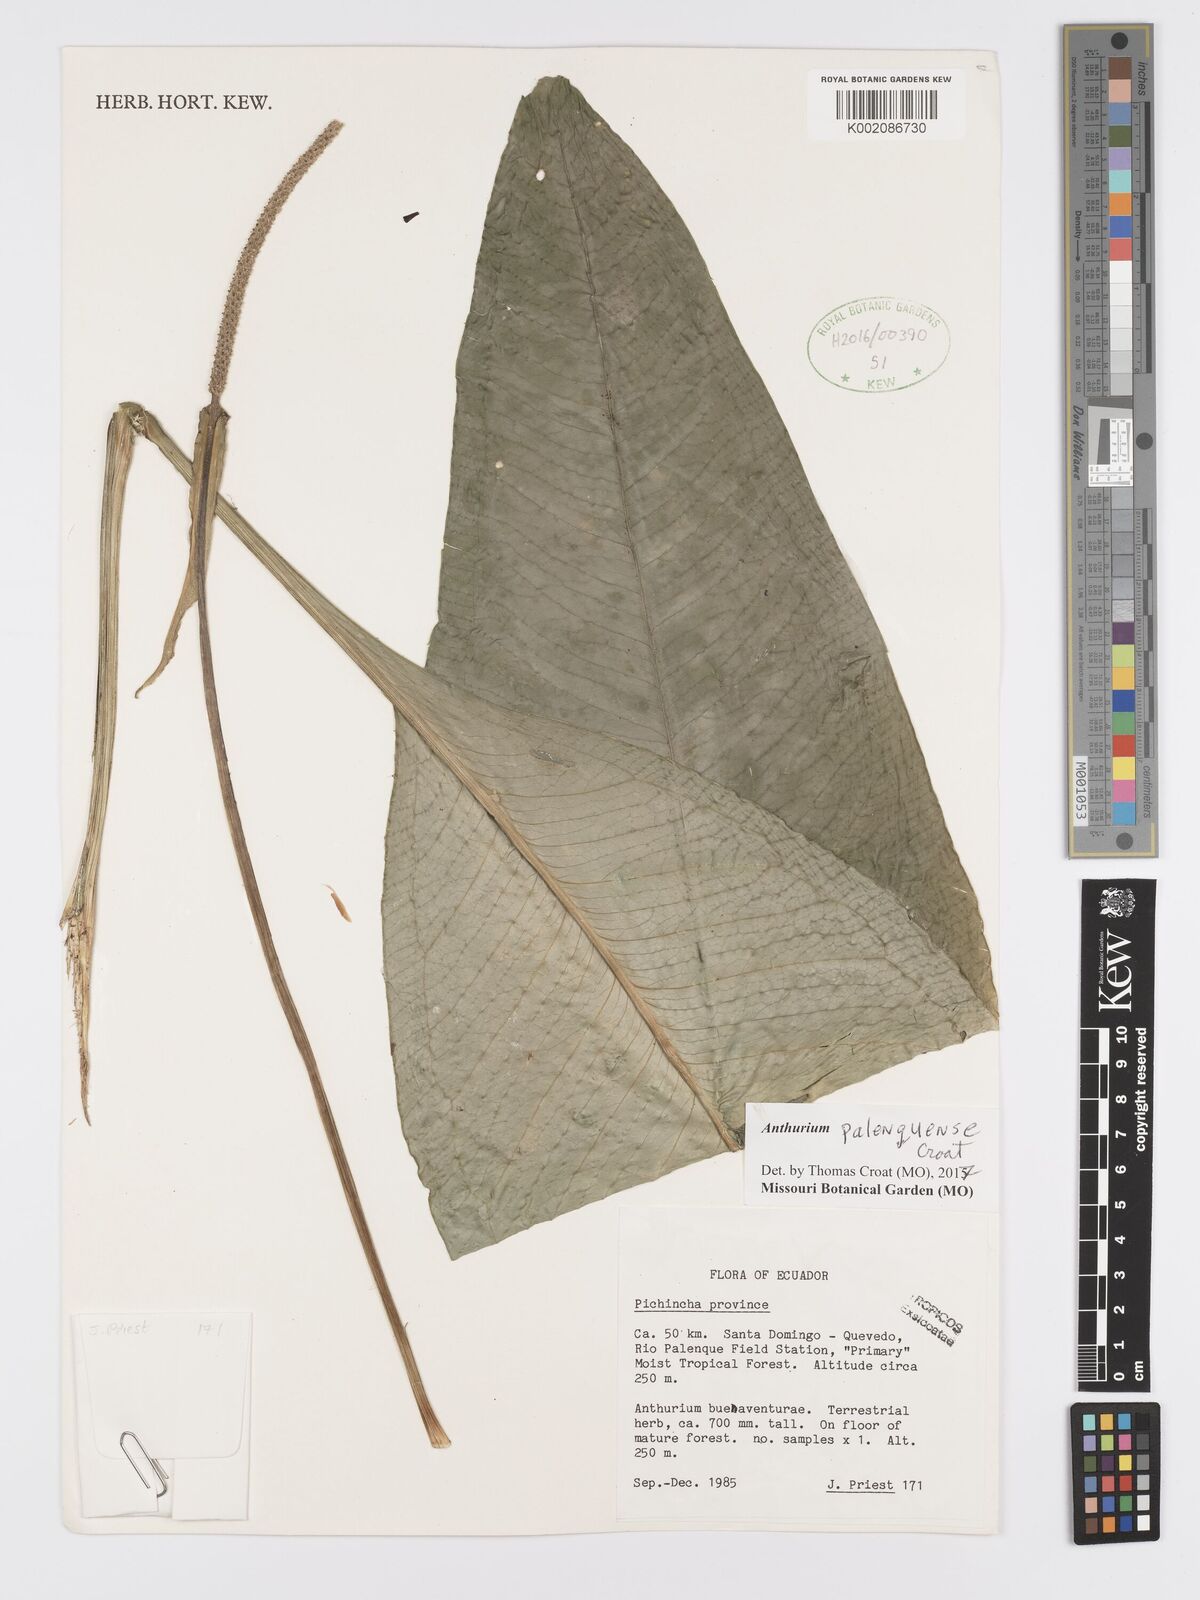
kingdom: Plantae
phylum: Tracheophyta
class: Liliopsida
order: Alismatales
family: Araceae
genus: Anthurium
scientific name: Anthurium palenquense
